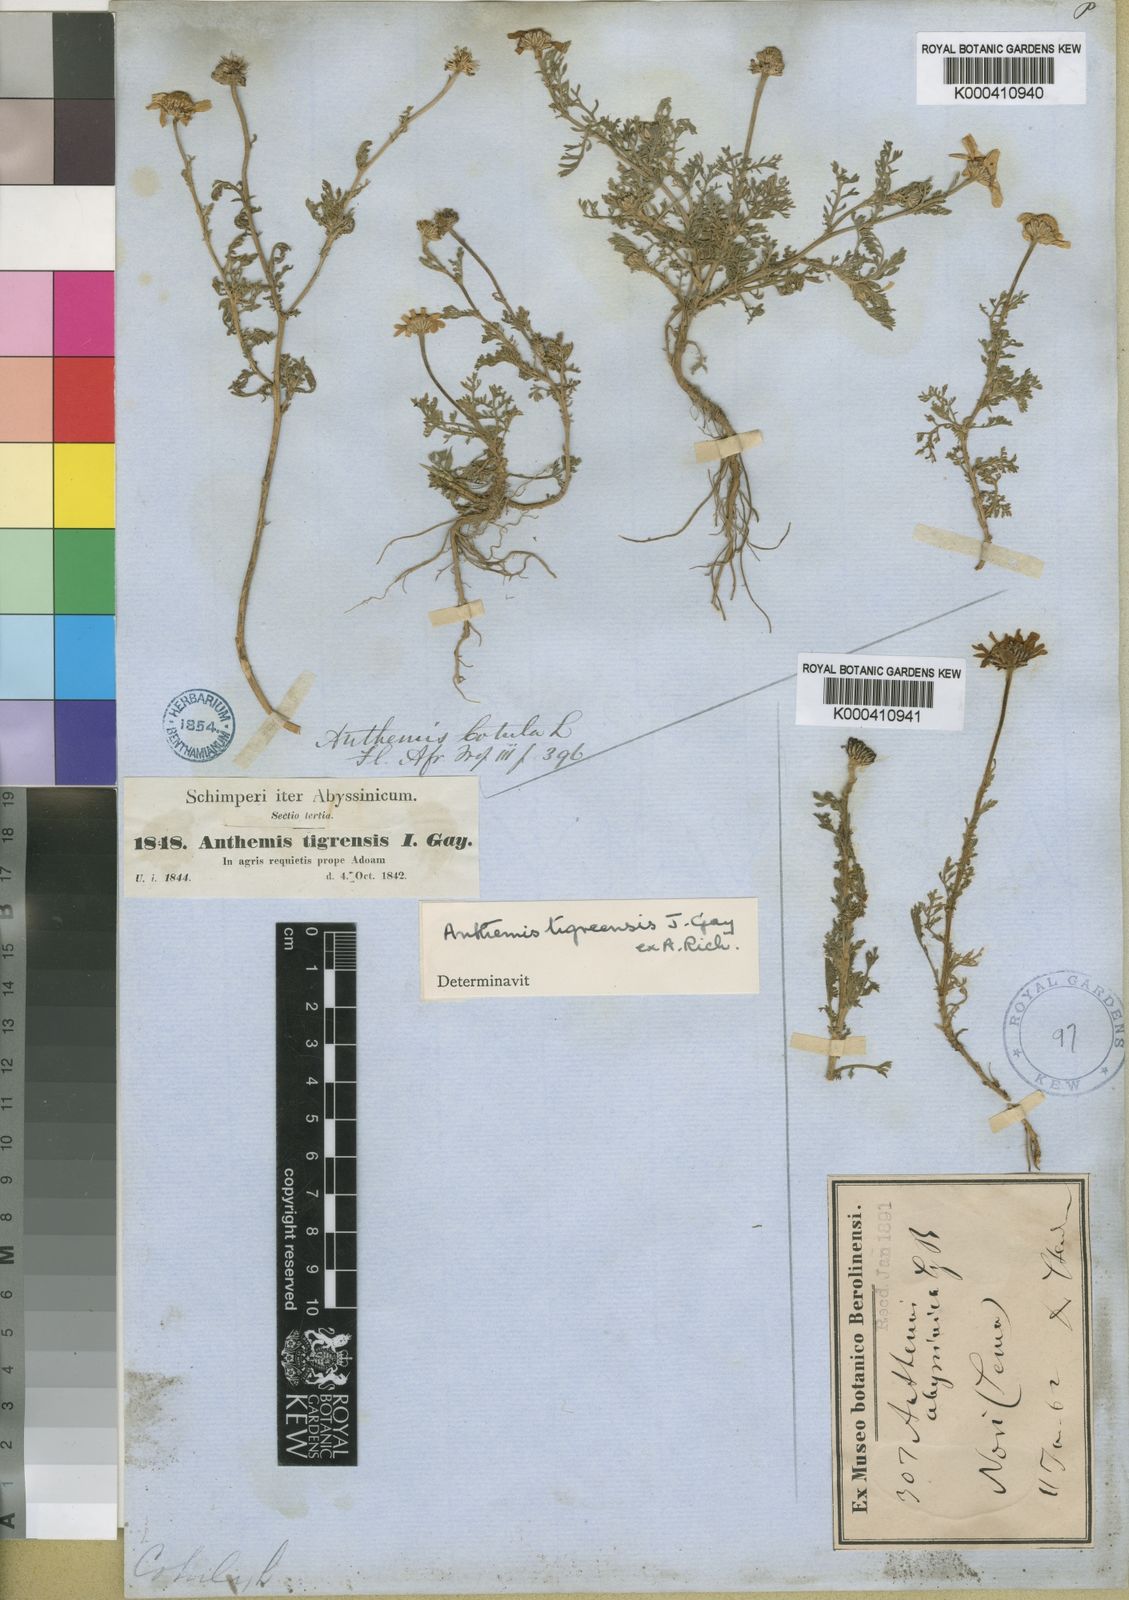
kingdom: Plantae
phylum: Tracheophyta
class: Magnoliopsida
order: Asterales
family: Asteraceae
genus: Anthemis
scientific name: Anthemis tigreensis
